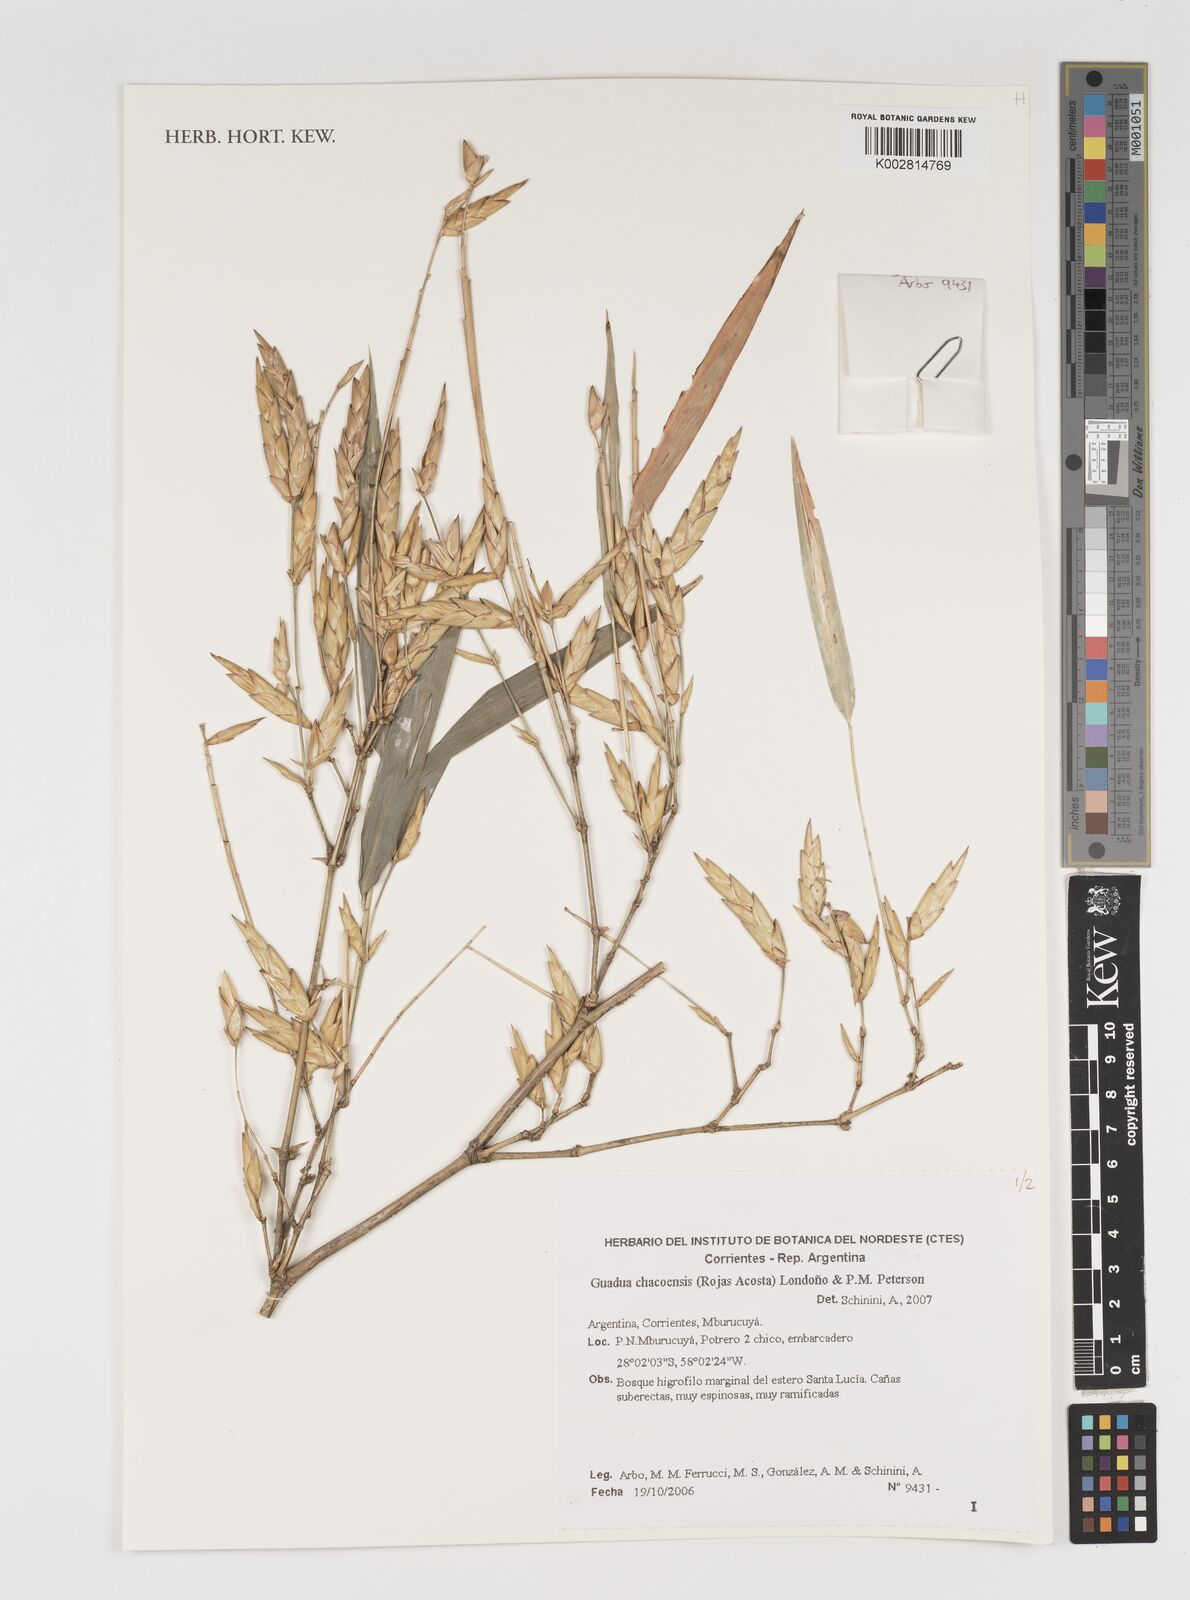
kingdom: Plantae
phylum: Tracheophyta
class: Liliopsida
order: Poales
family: Poaceae
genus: Guadua
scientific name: Guadua chacoensis
